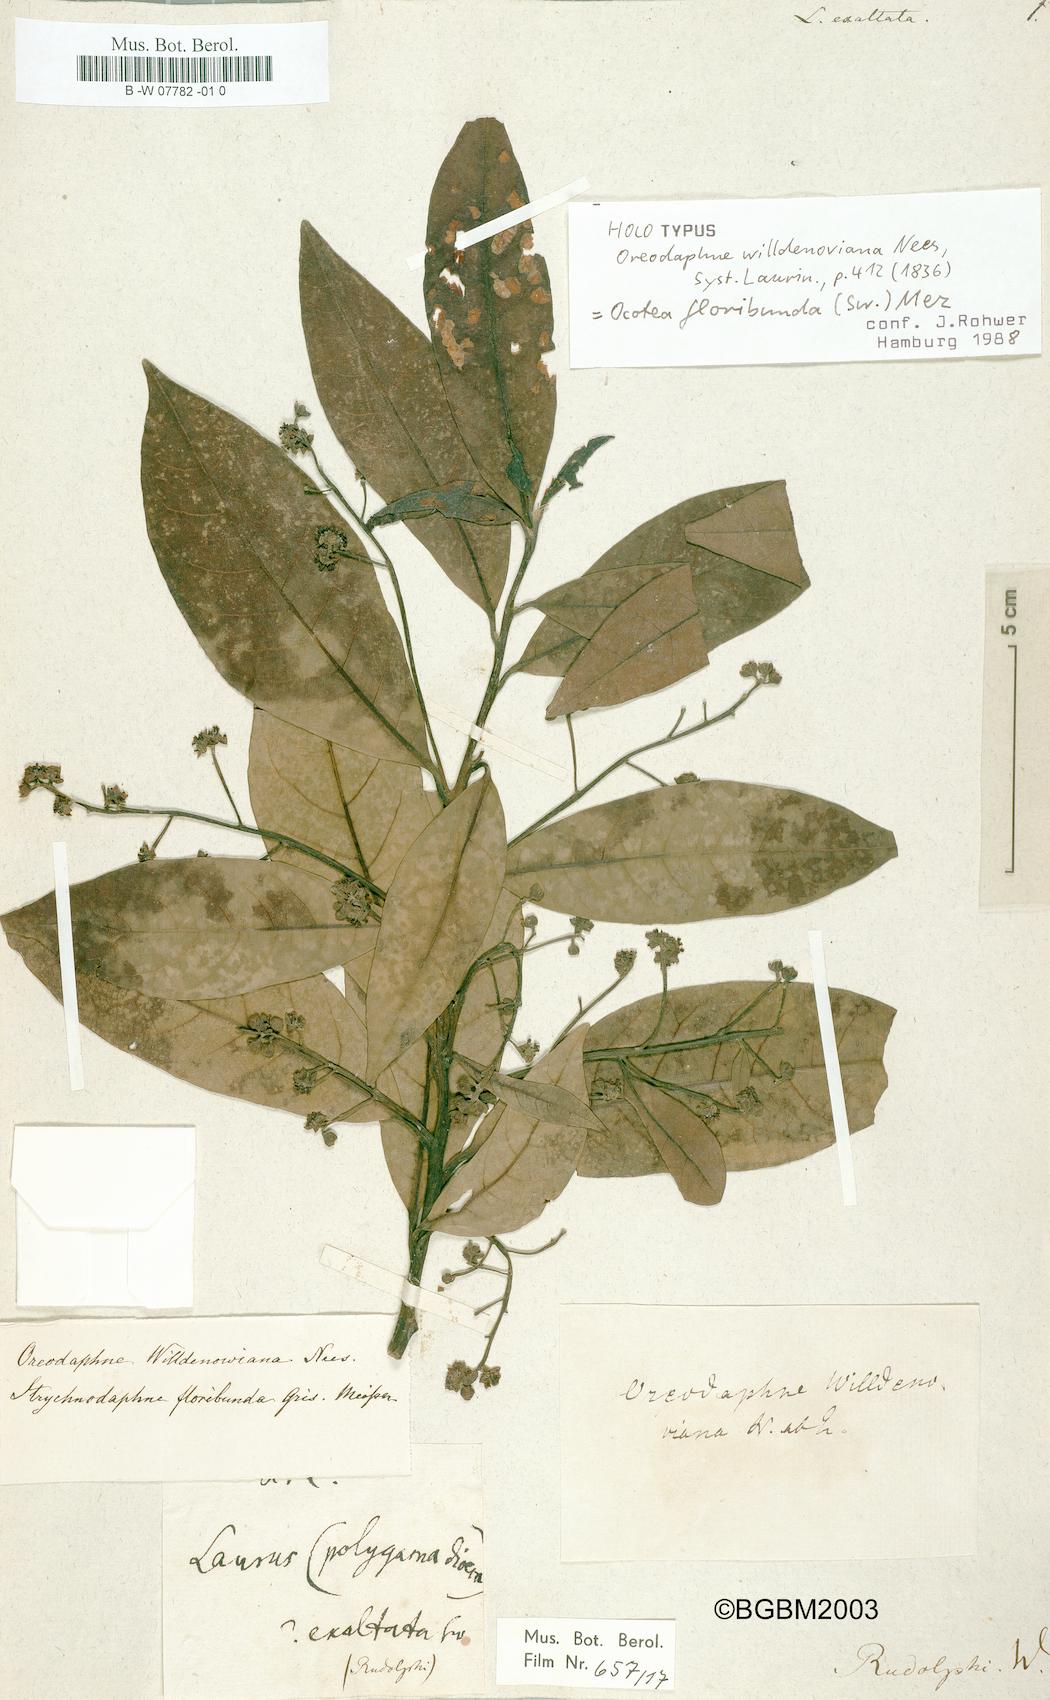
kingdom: Plantae
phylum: Tracheophyta
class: Magnoliopsida
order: Laurales
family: Lauraceae
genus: Nectandra
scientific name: Nectandra turbacensis
